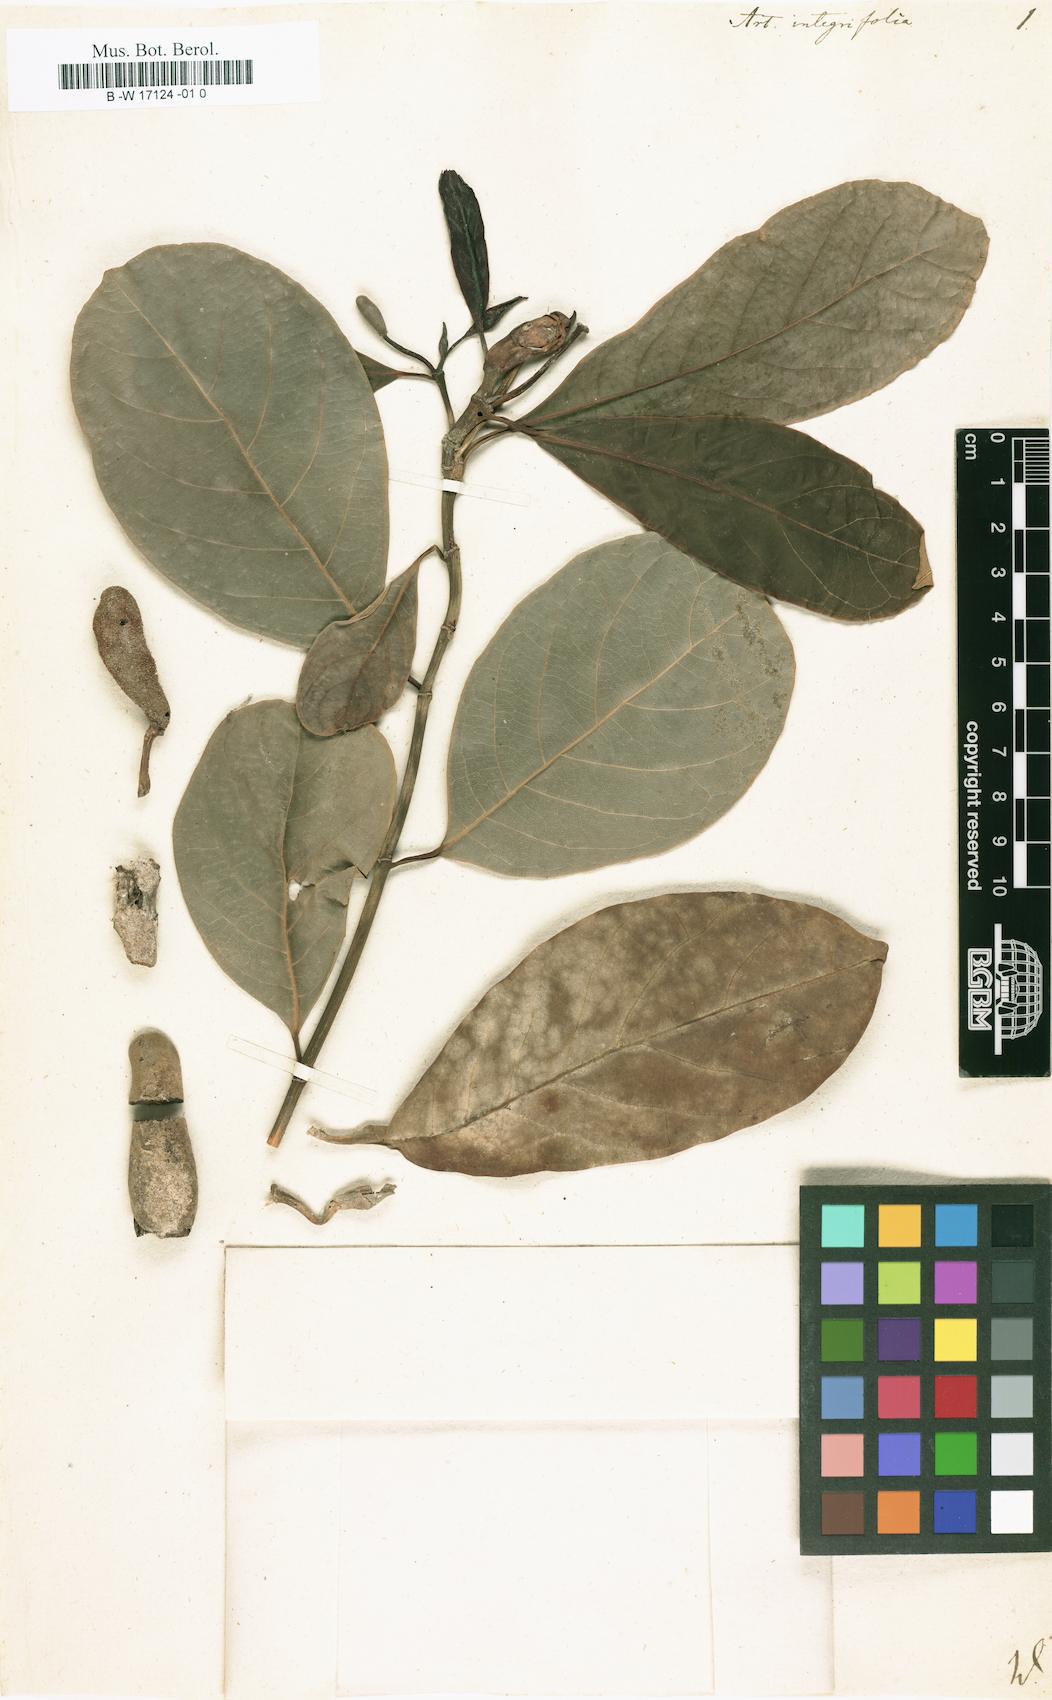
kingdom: Plantae
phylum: Tracheophyta
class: Magnoliopsida
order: Rosales
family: Moraceae
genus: Artocarpus
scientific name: Artocarpus integer
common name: Chempedak
